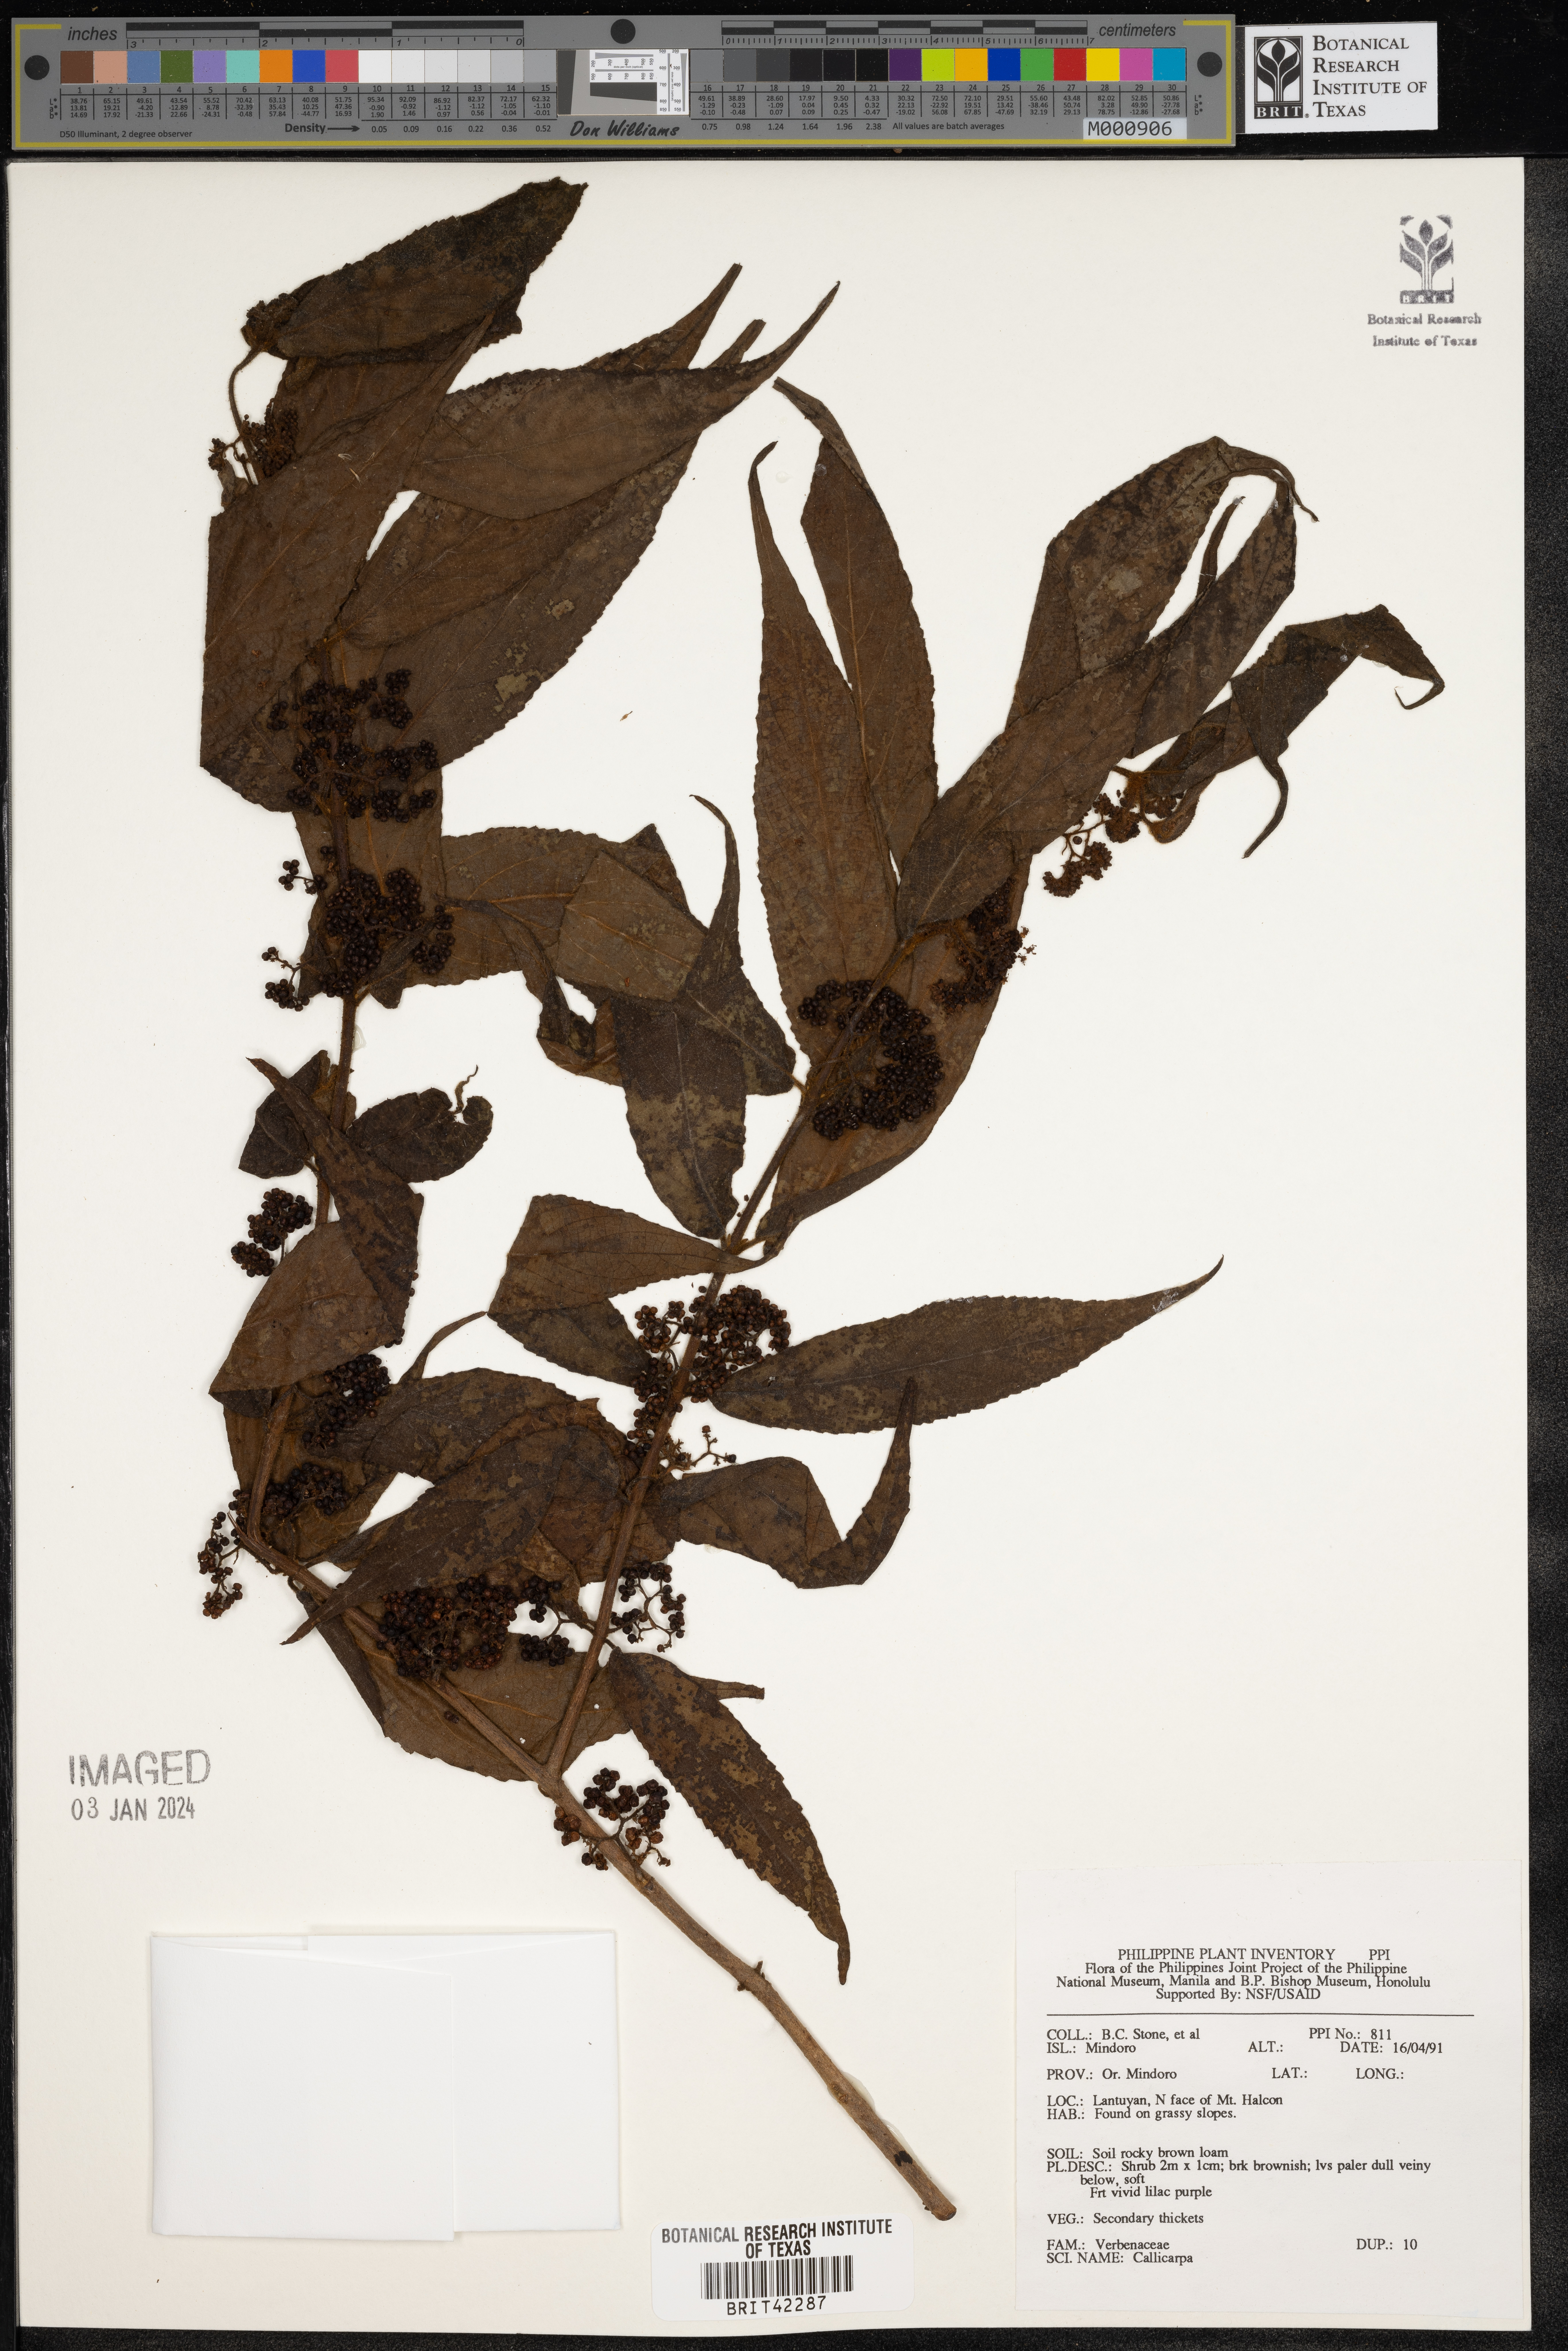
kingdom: Plantae
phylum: Tracheophyta
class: Magnoliopsida
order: Lamiales
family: Lamiaceae
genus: Callicarpa
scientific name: Callicarpa
